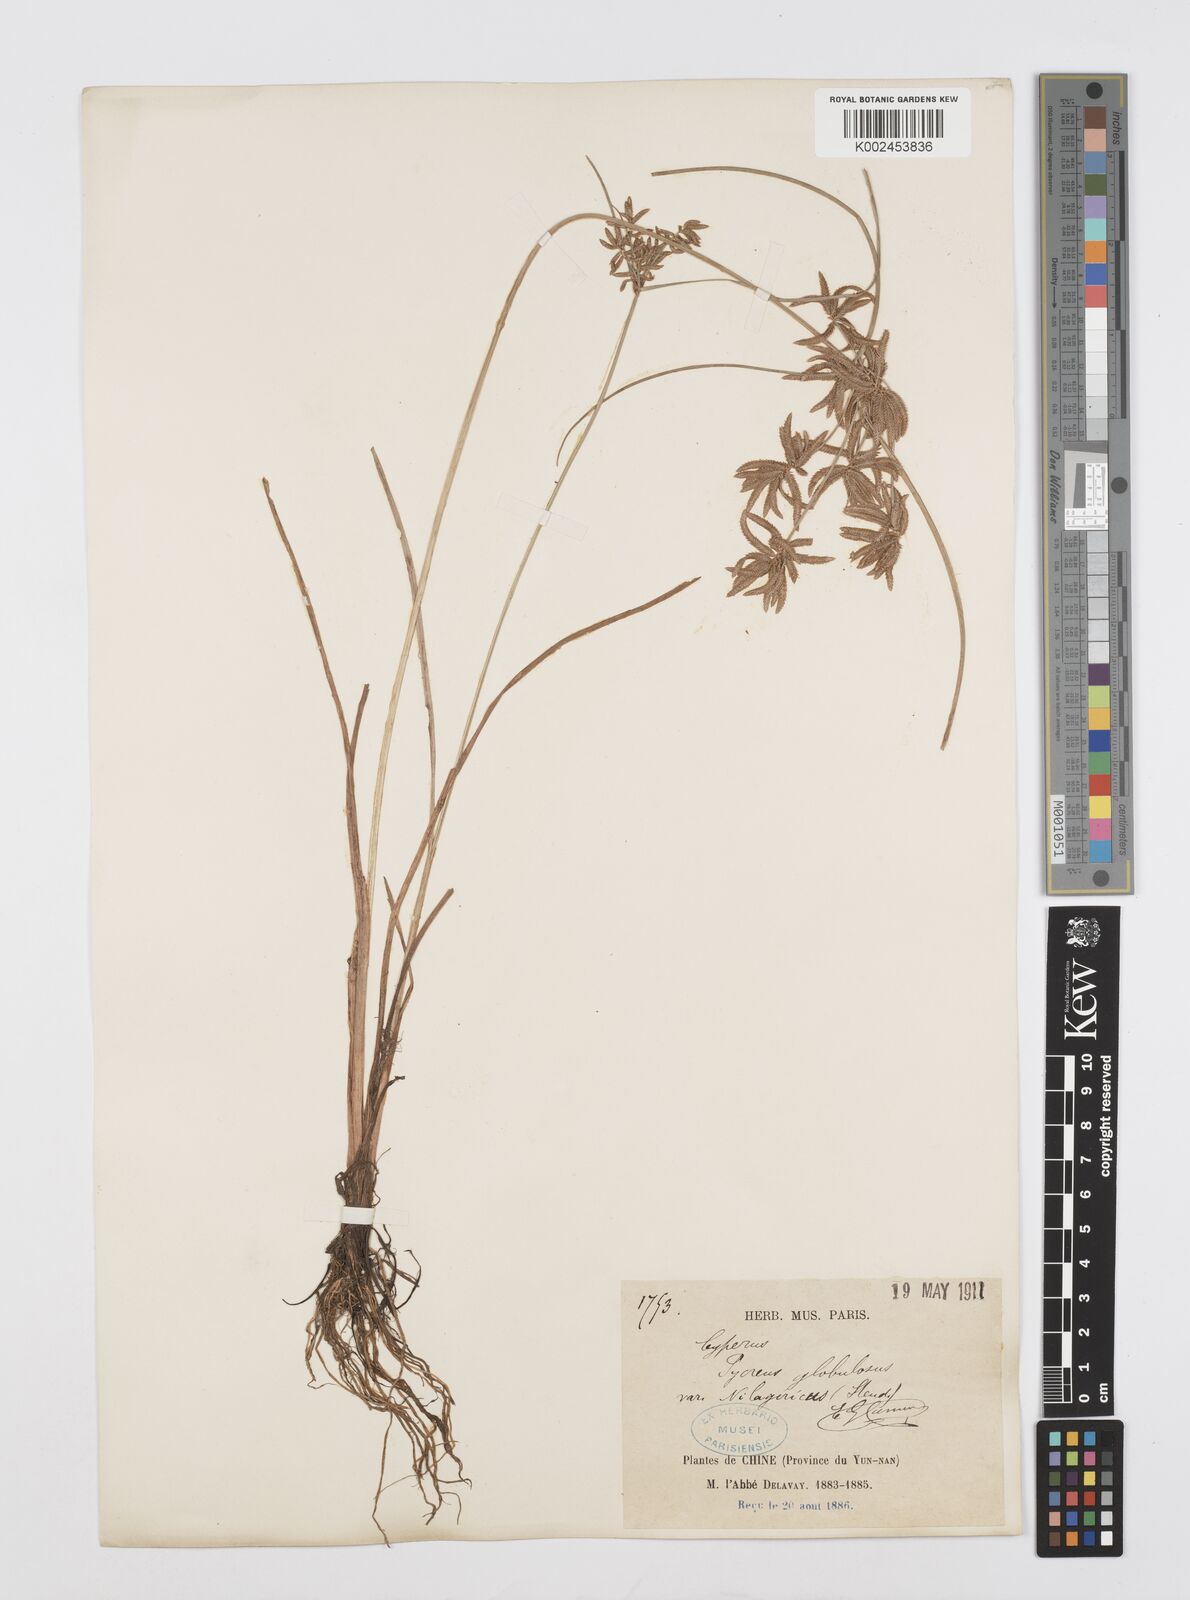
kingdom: Plantae
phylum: Tracheophyta
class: Liliopsida
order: Poales
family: Cyperaceae
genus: Cyperus
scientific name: Cyperus flavidus
